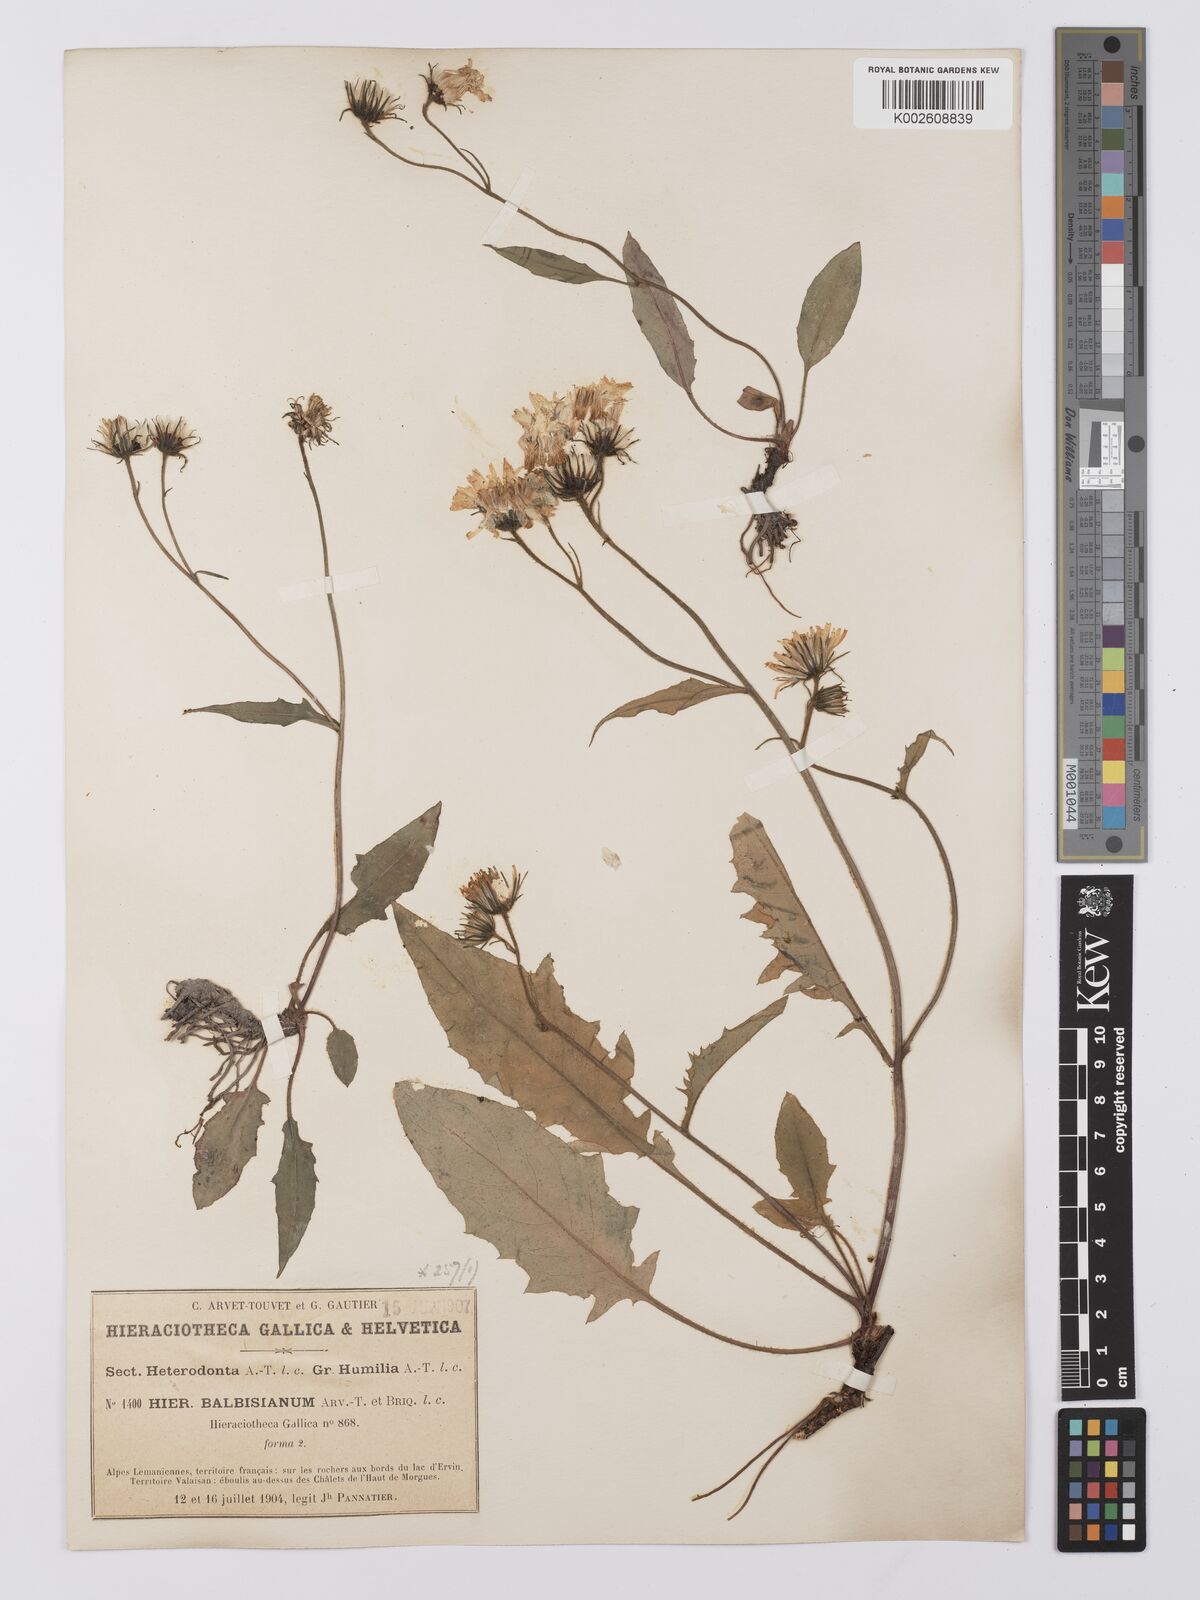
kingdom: Plantae
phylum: Tracheophyta
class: Magnoliopsida
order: Asterales
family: Asteraceae
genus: Hieracium
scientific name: Hieracium
